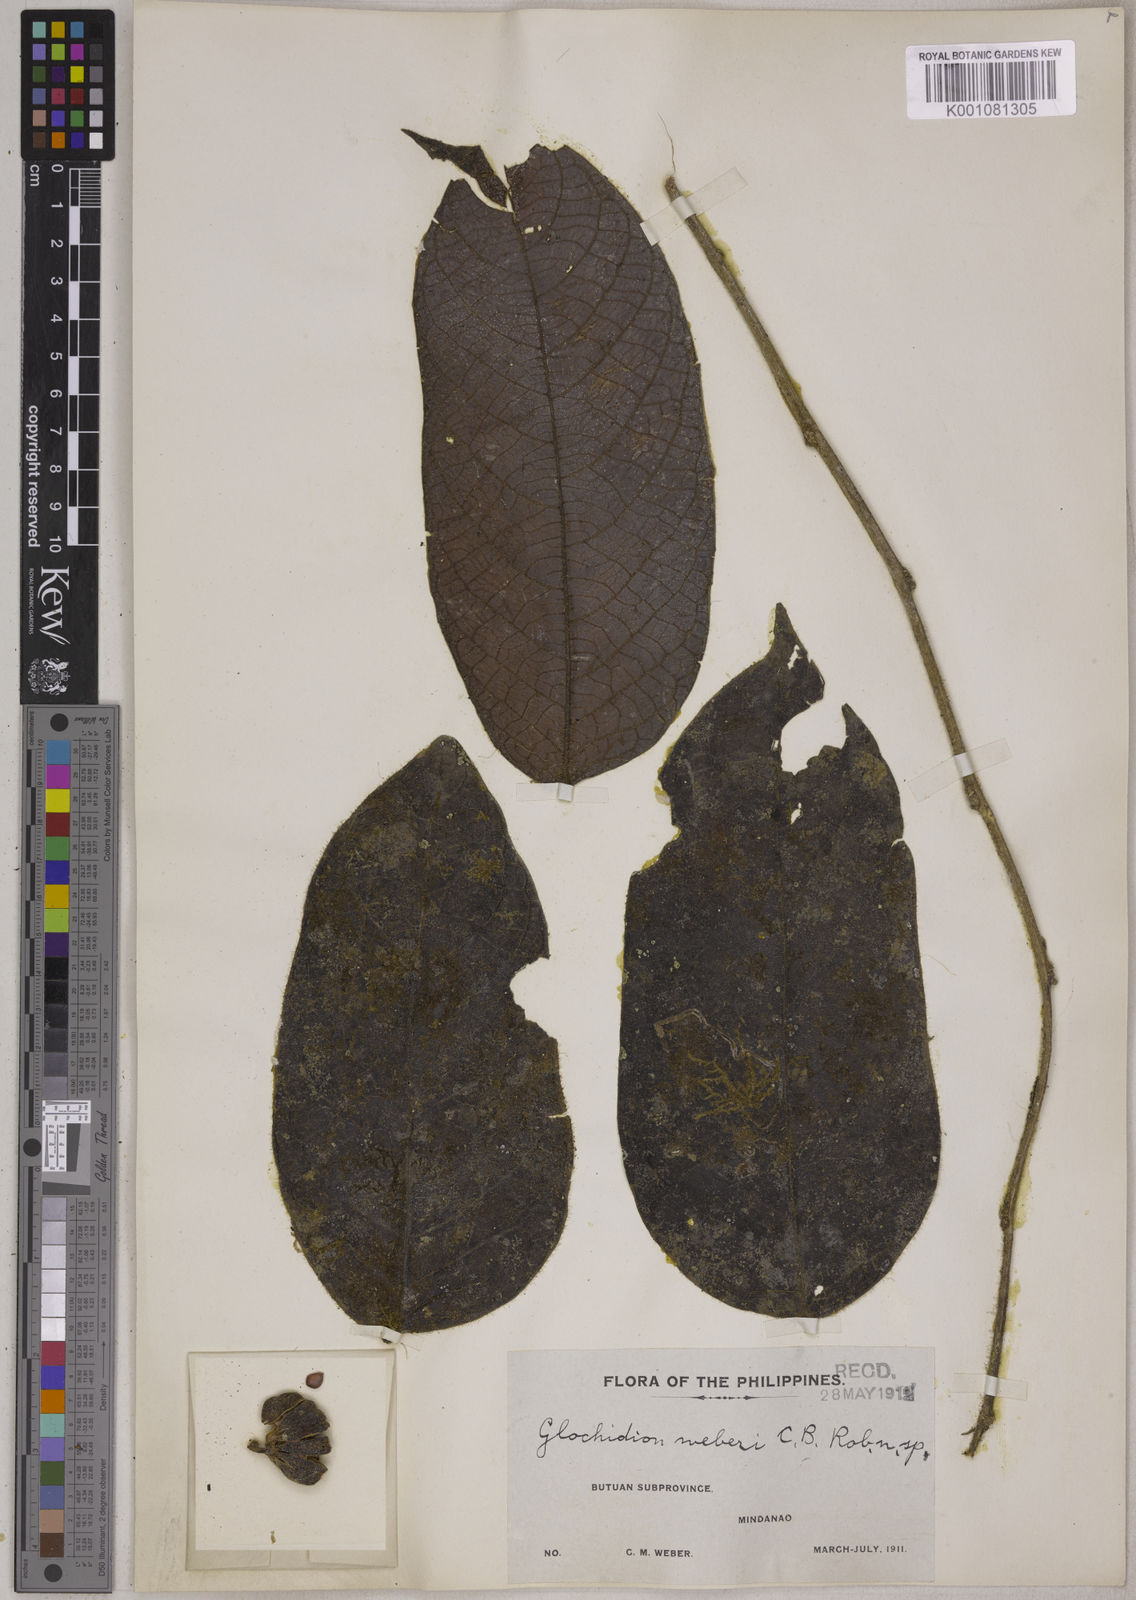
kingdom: Plantae
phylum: Tracheophyta
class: Magnoliopsida
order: Malpighiales
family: Phyllanthaceae
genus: Glochidion
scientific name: Glochidion weberi
